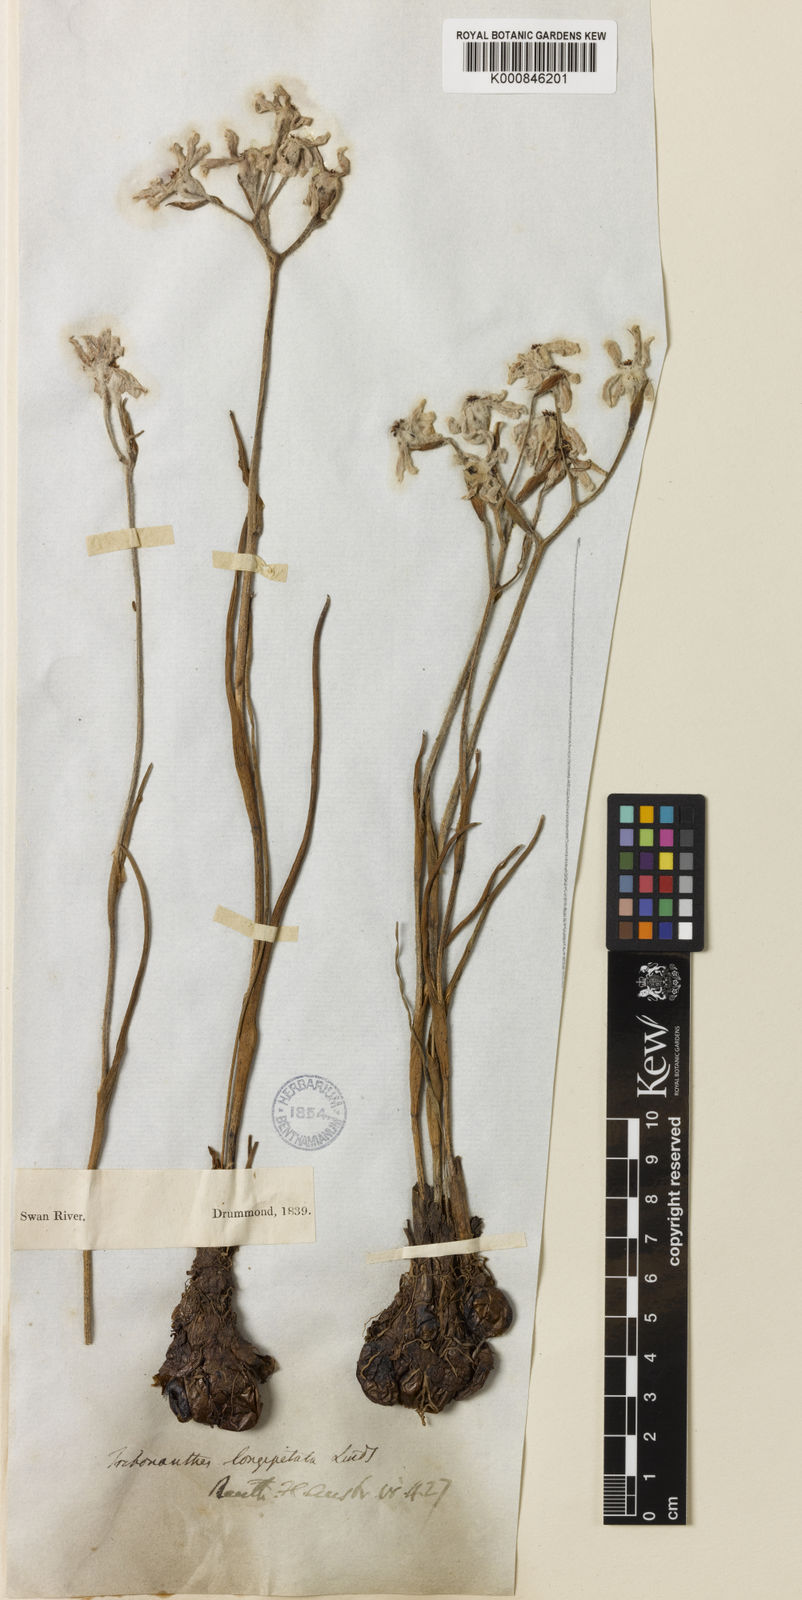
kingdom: Plantae
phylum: Tracheophyta
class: Liliopsida
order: Commelinales
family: Haemodoraceae
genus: Tribonanthes
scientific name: Tribonanthes longipetala
